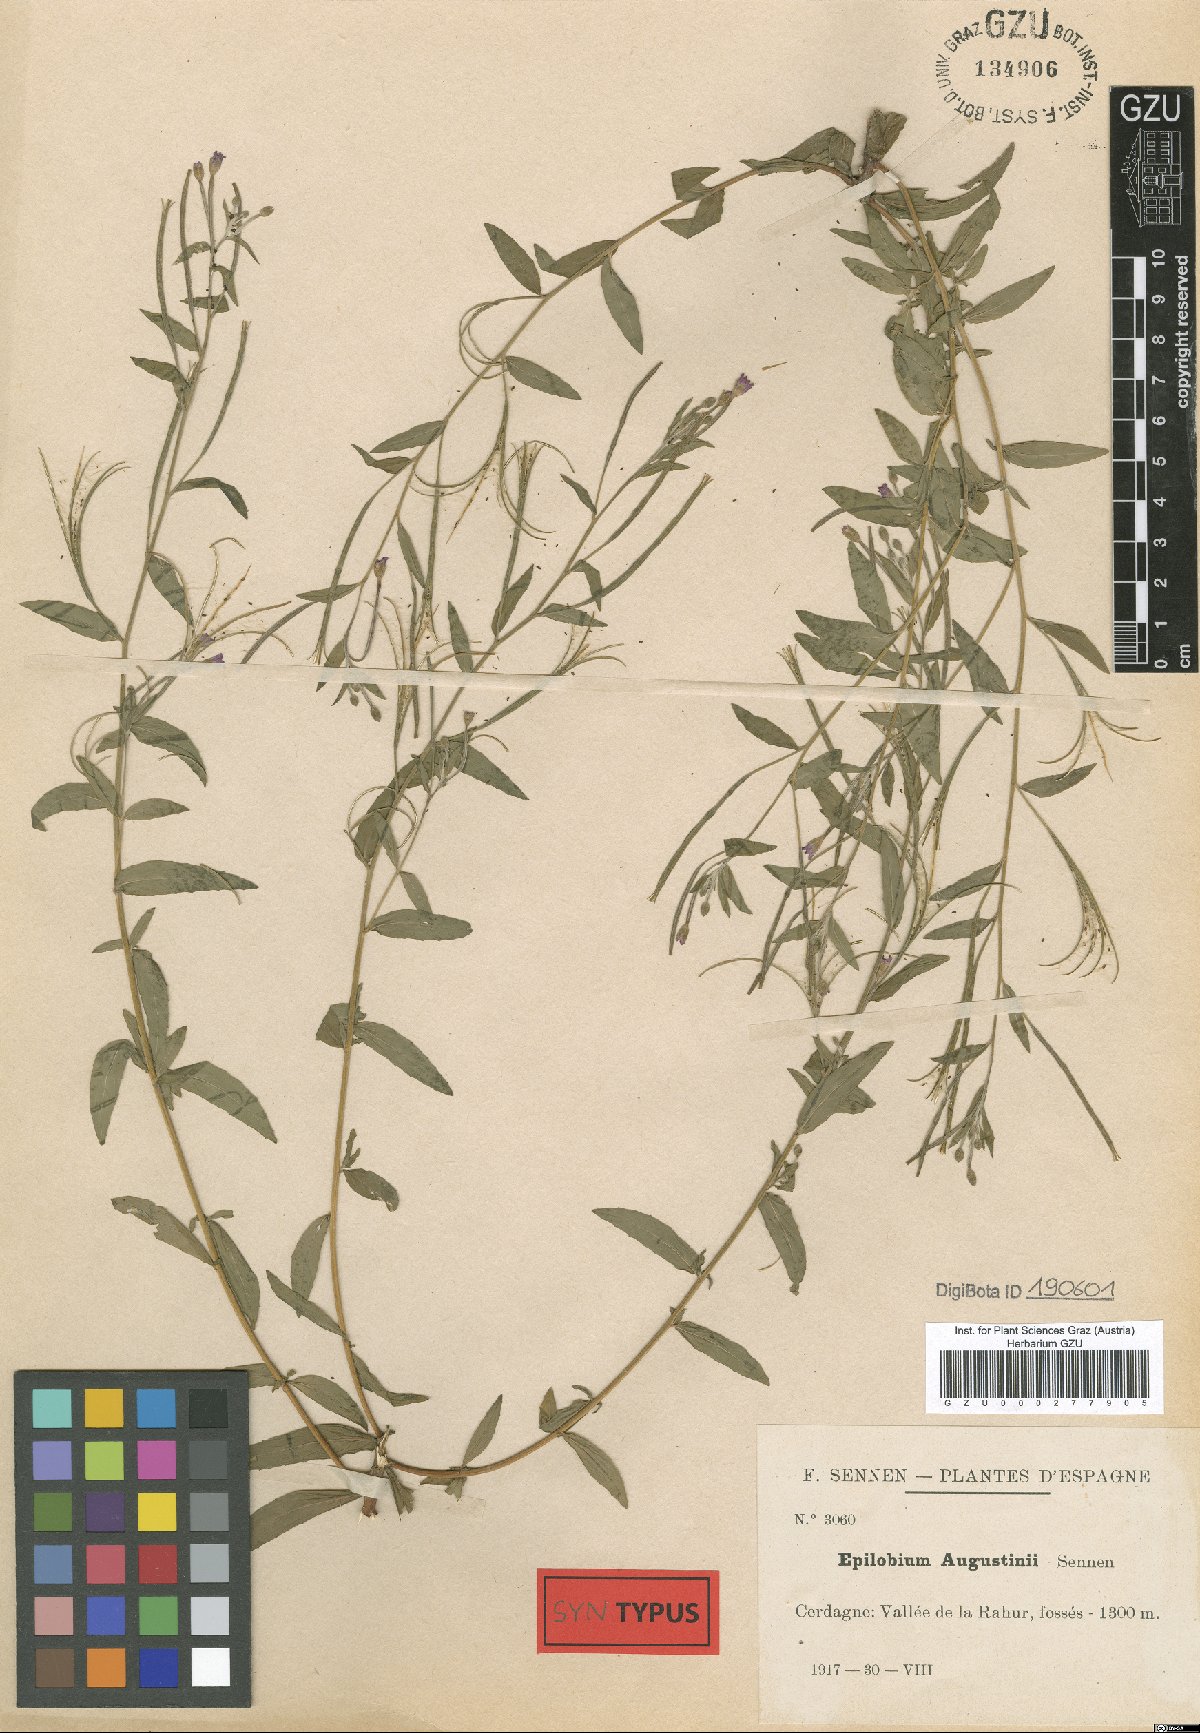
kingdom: Plantae
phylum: Tracheophyta
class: Magnoliopsida
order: Myrtales
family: Onagraceae
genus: Epilobium
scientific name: Epilobium augustini
